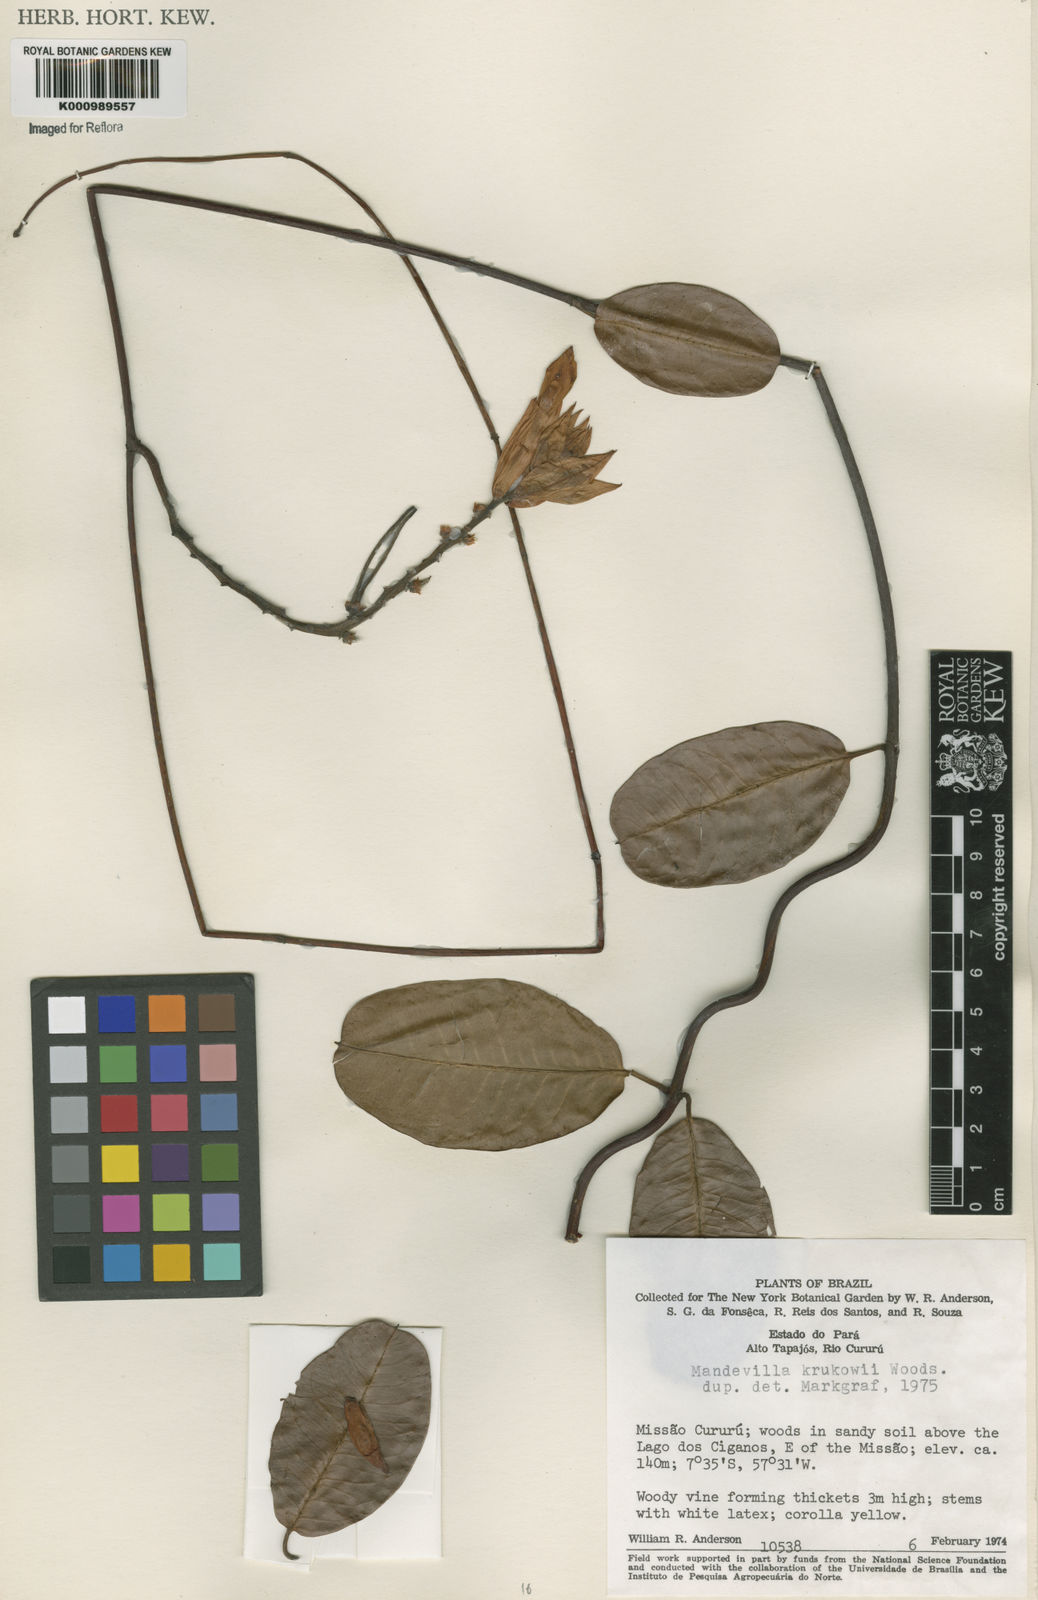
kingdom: Plantae
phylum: Tracheophyta
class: Magnoliopsida
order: Gentianales
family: Apocynaceae
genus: Mandevilla
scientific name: Mandevilla krukovii
